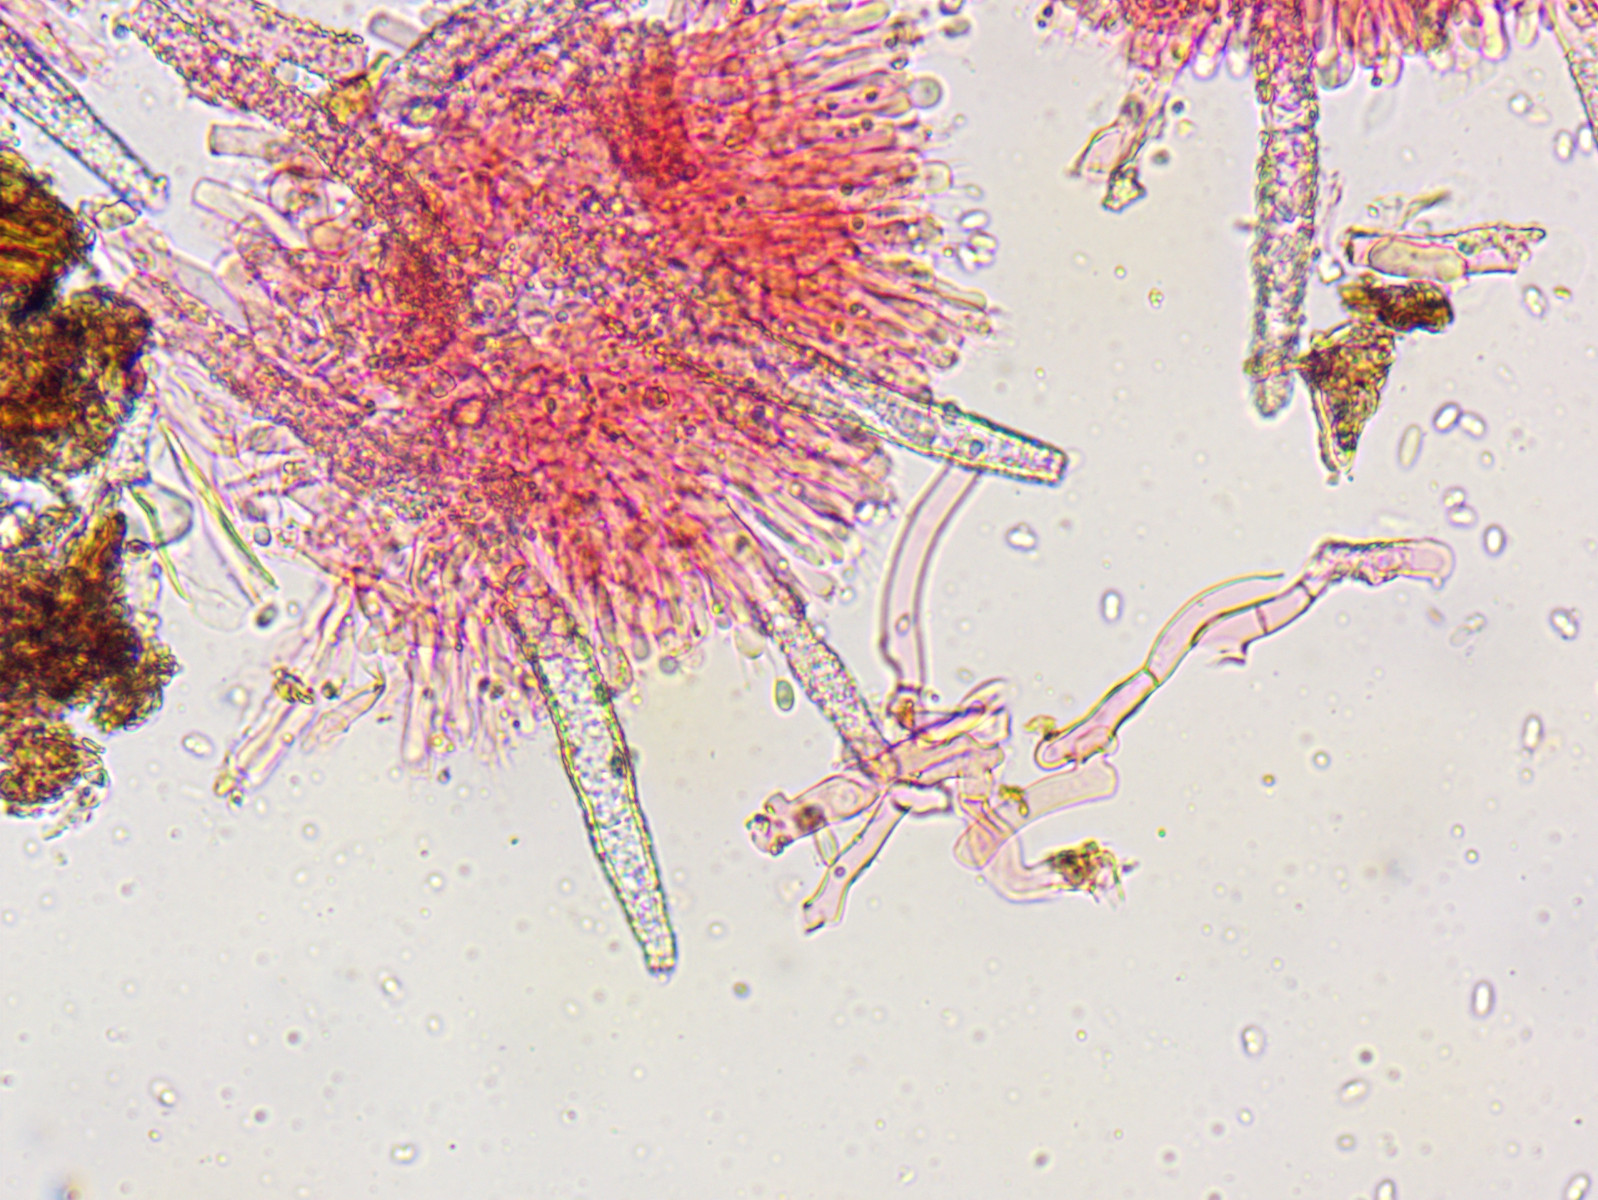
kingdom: Fungi
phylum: Basidiomycota
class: Agaricomycetes
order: Polyporales
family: Phanerochaetaceae
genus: Phanerochaete
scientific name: Phanerochaete velutina
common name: dunet randtråd
